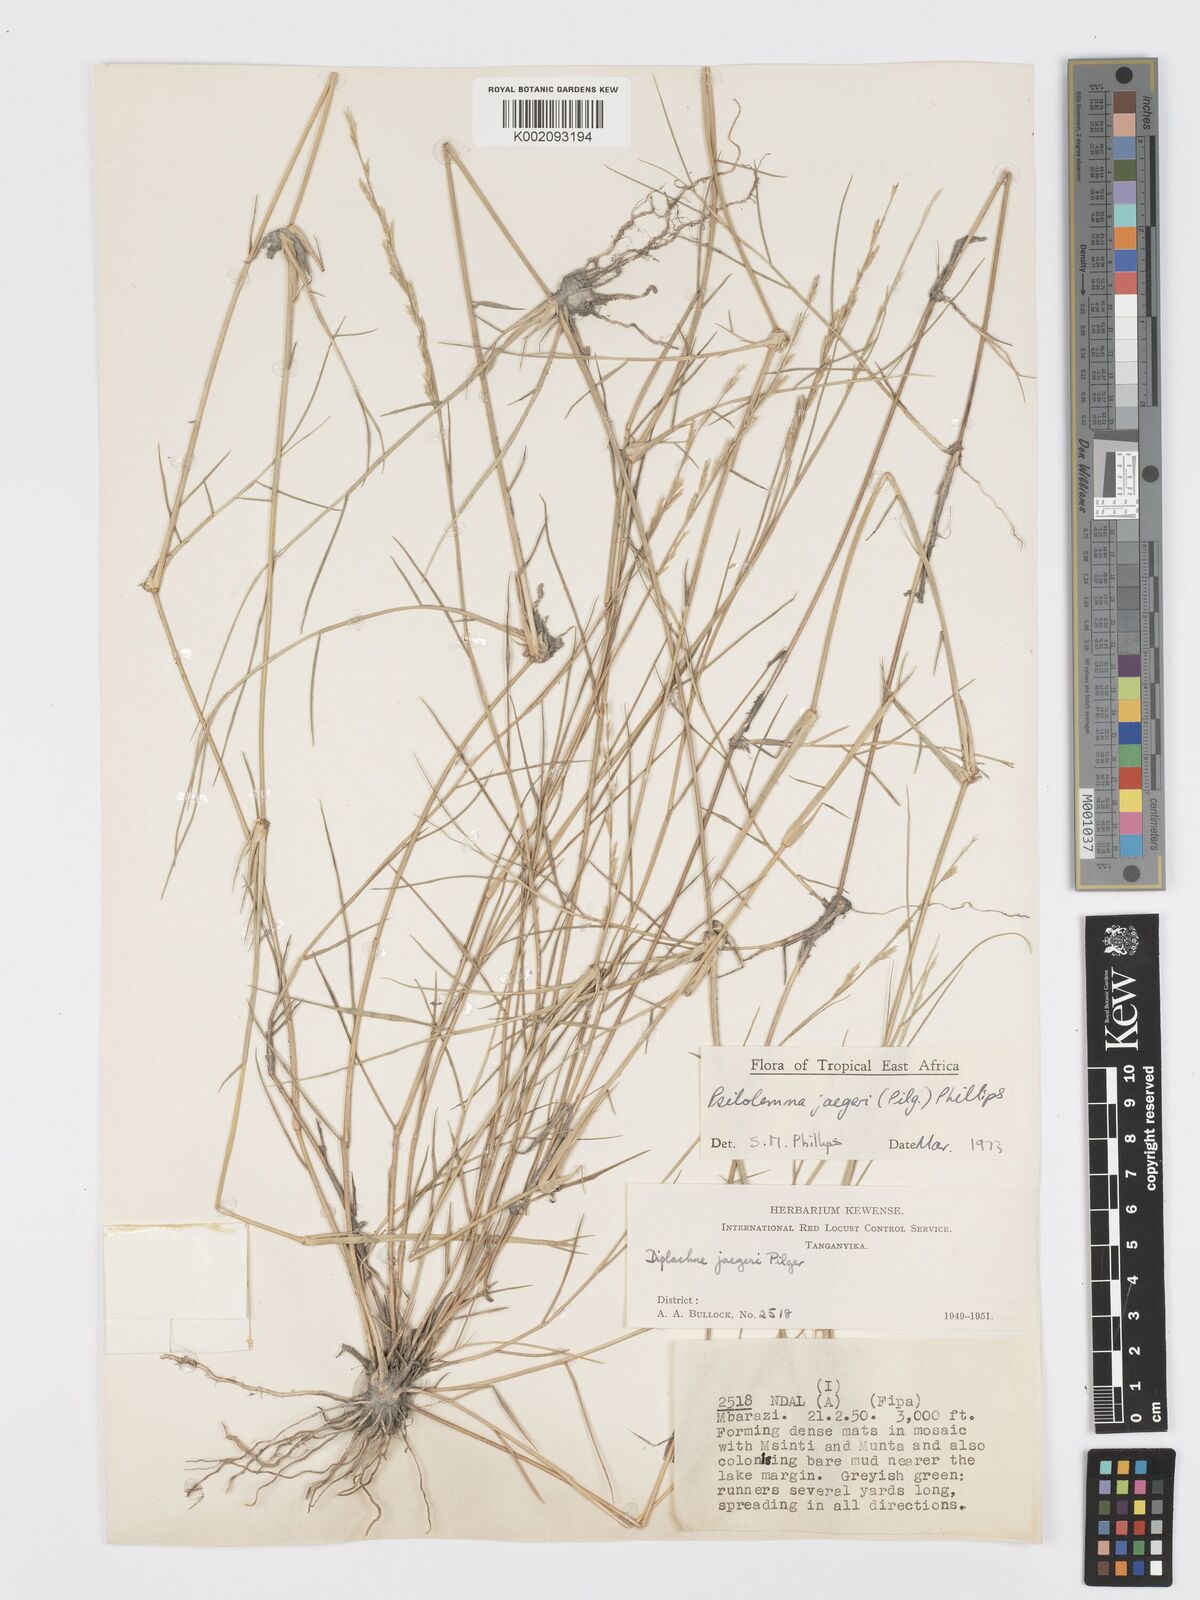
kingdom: Plantae
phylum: Tracheophyta
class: Liliopsida
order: Poales
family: Poaceae
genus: Psilolemma
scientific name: Psilolemma jaegeri
